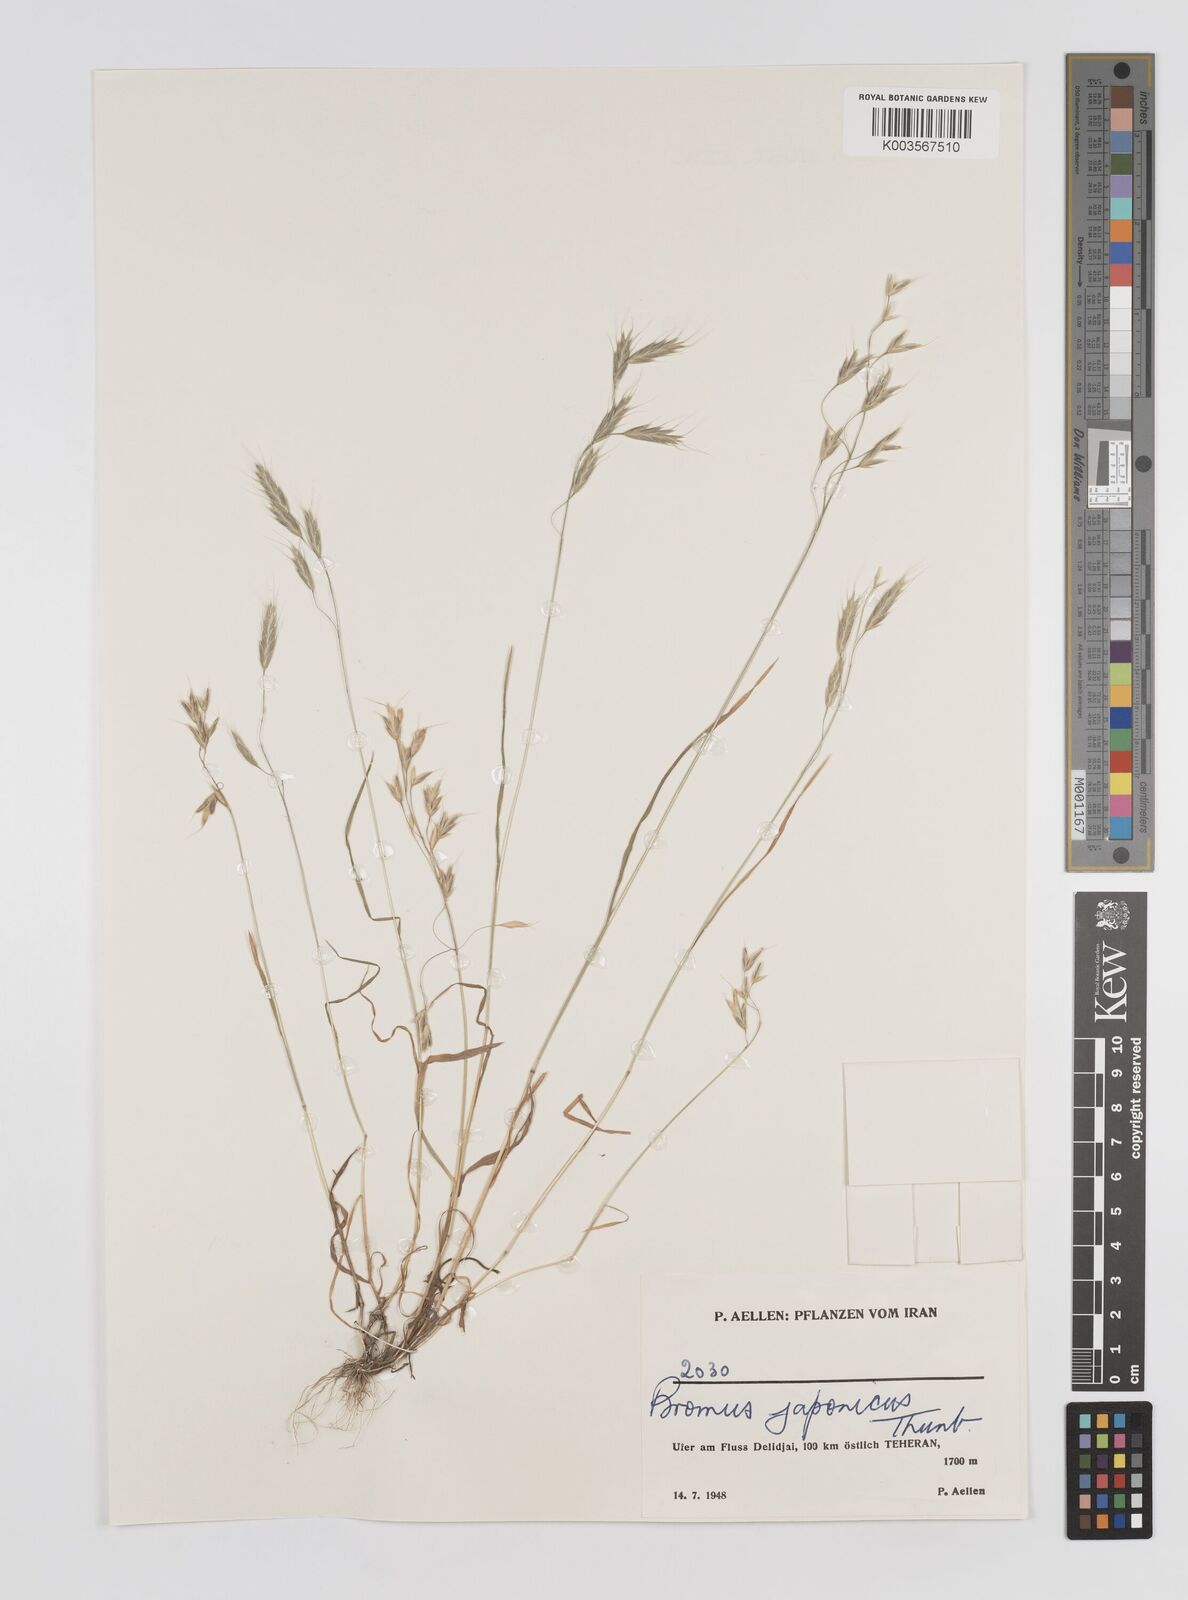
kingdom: Plantae
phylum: Tracheophyta
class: Liliopsida
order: Poales
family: Poaceae
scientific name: Poaceae
